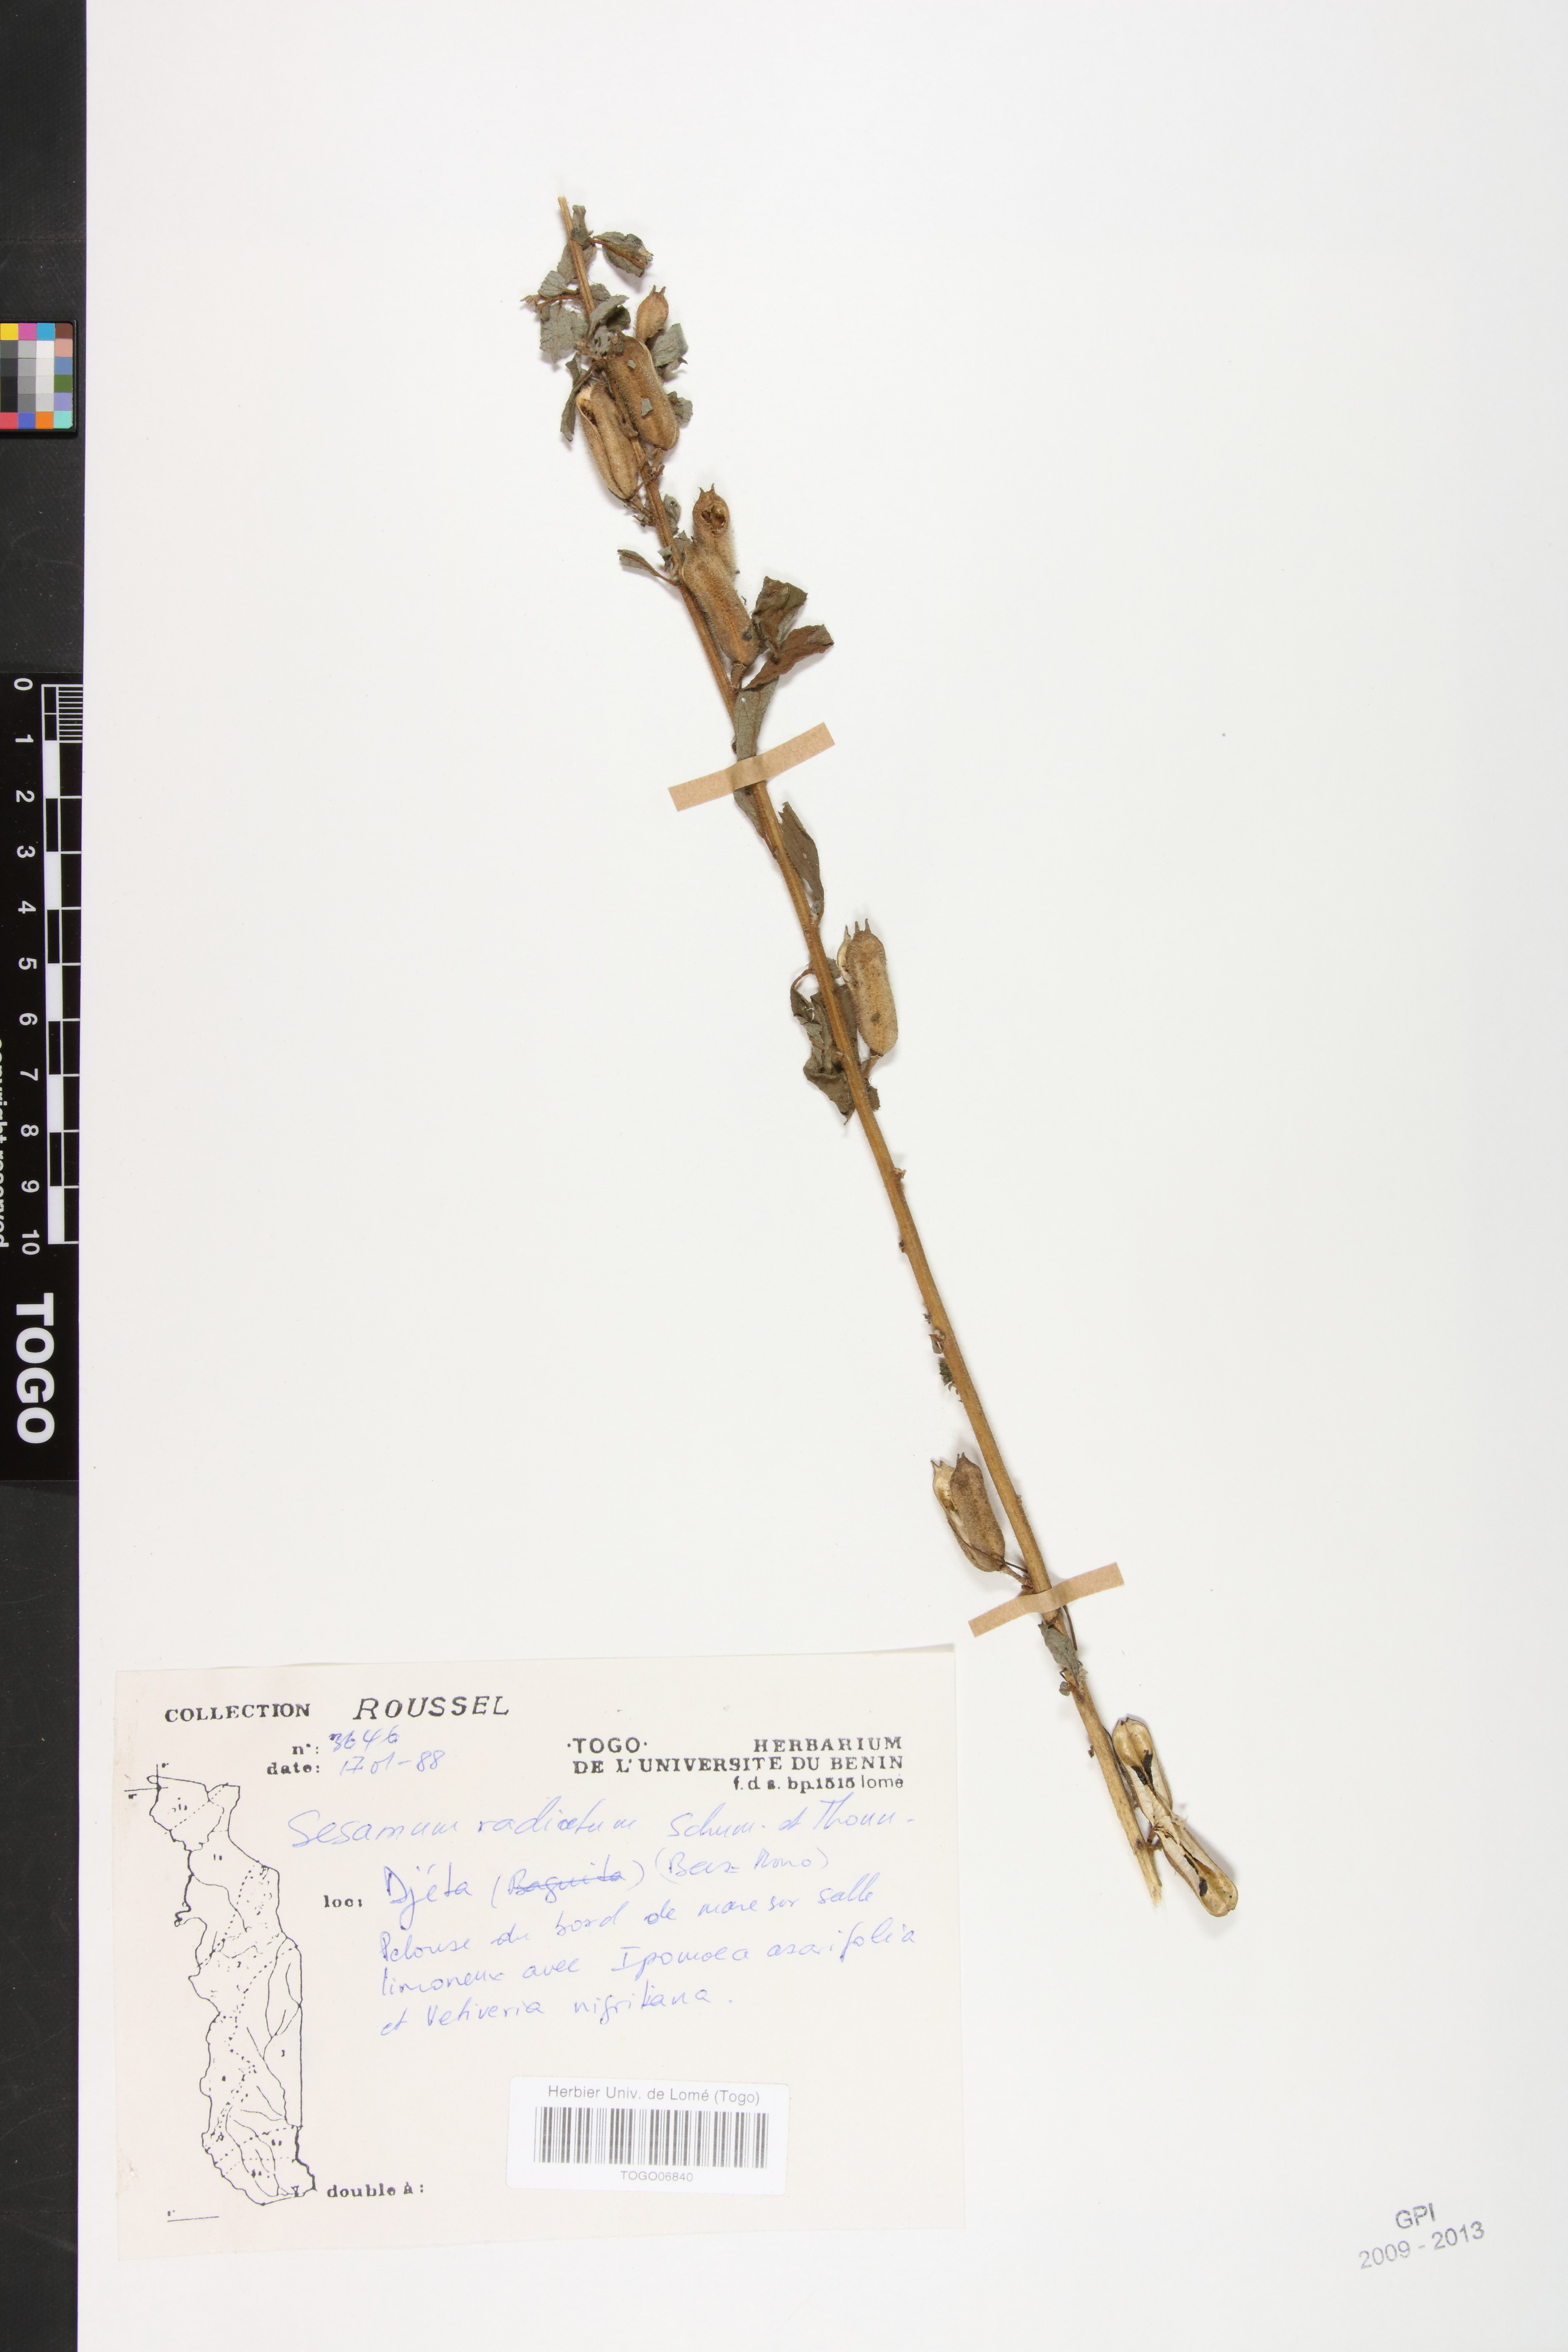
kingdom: Plantae
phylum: Tracheophyta
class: Magnoliopsida
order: Lamiales
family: Pedaliaceae
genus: Sesamum
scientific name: Sesamum radiatum
